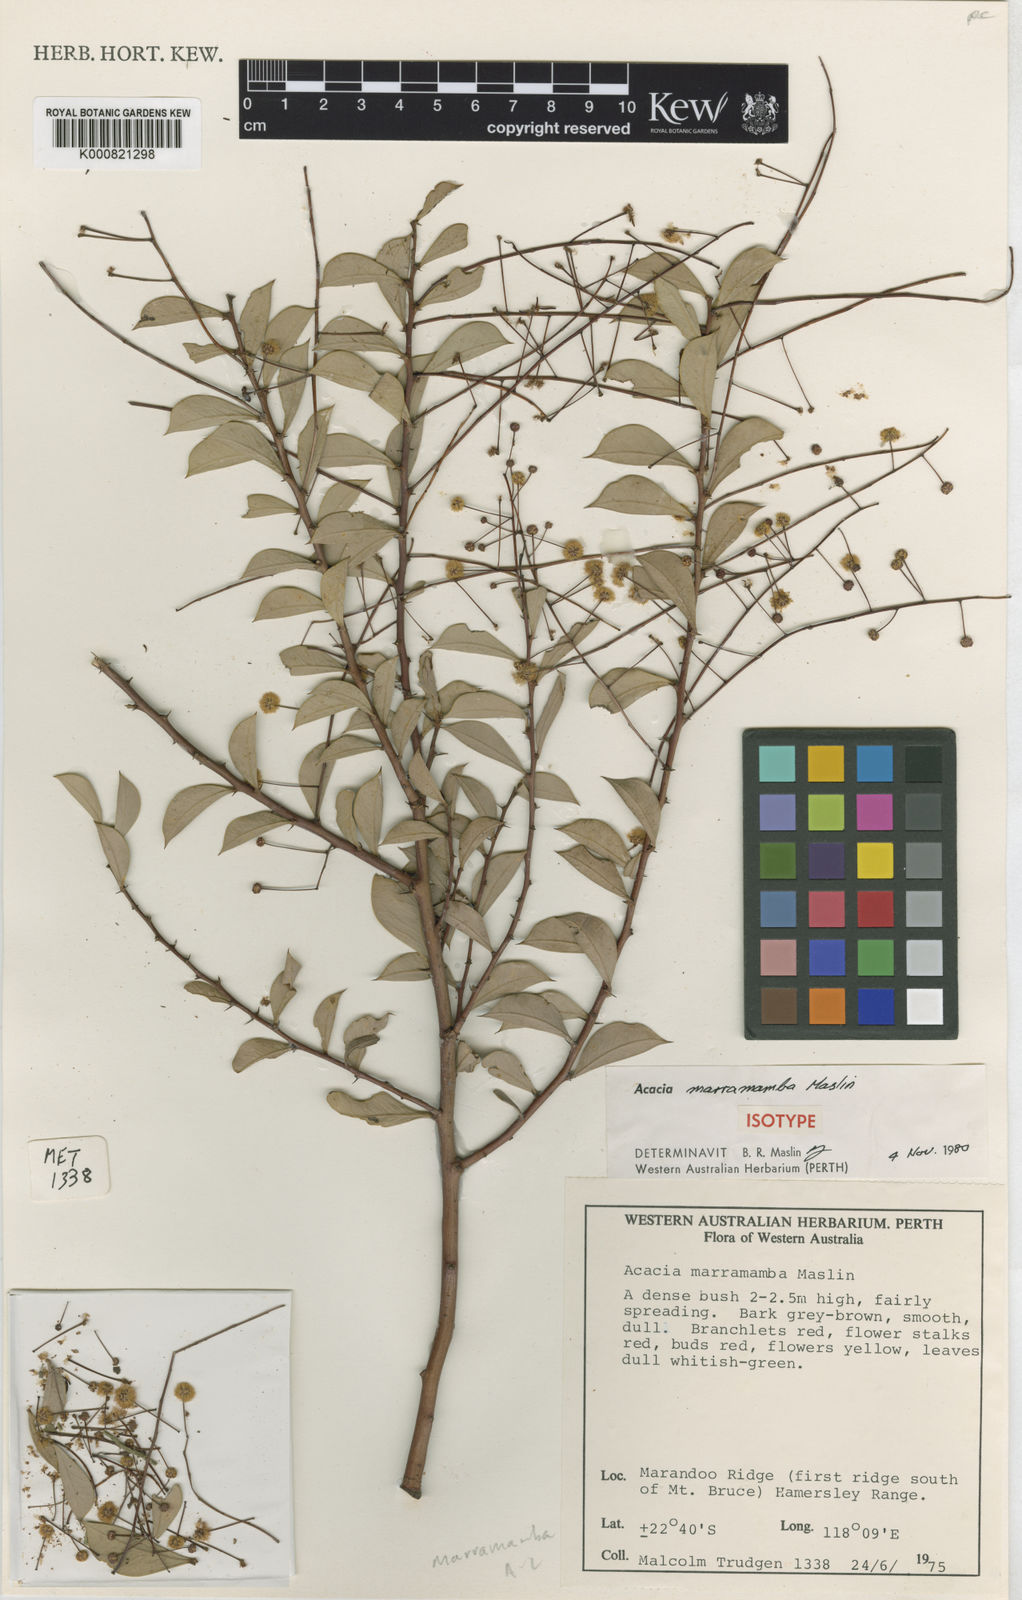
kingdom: Plantae
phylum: Tracheophyta
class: Magnoliopsida
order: Fabales
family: Fabaceae
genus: Acacia
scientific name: Acacia marramamba
